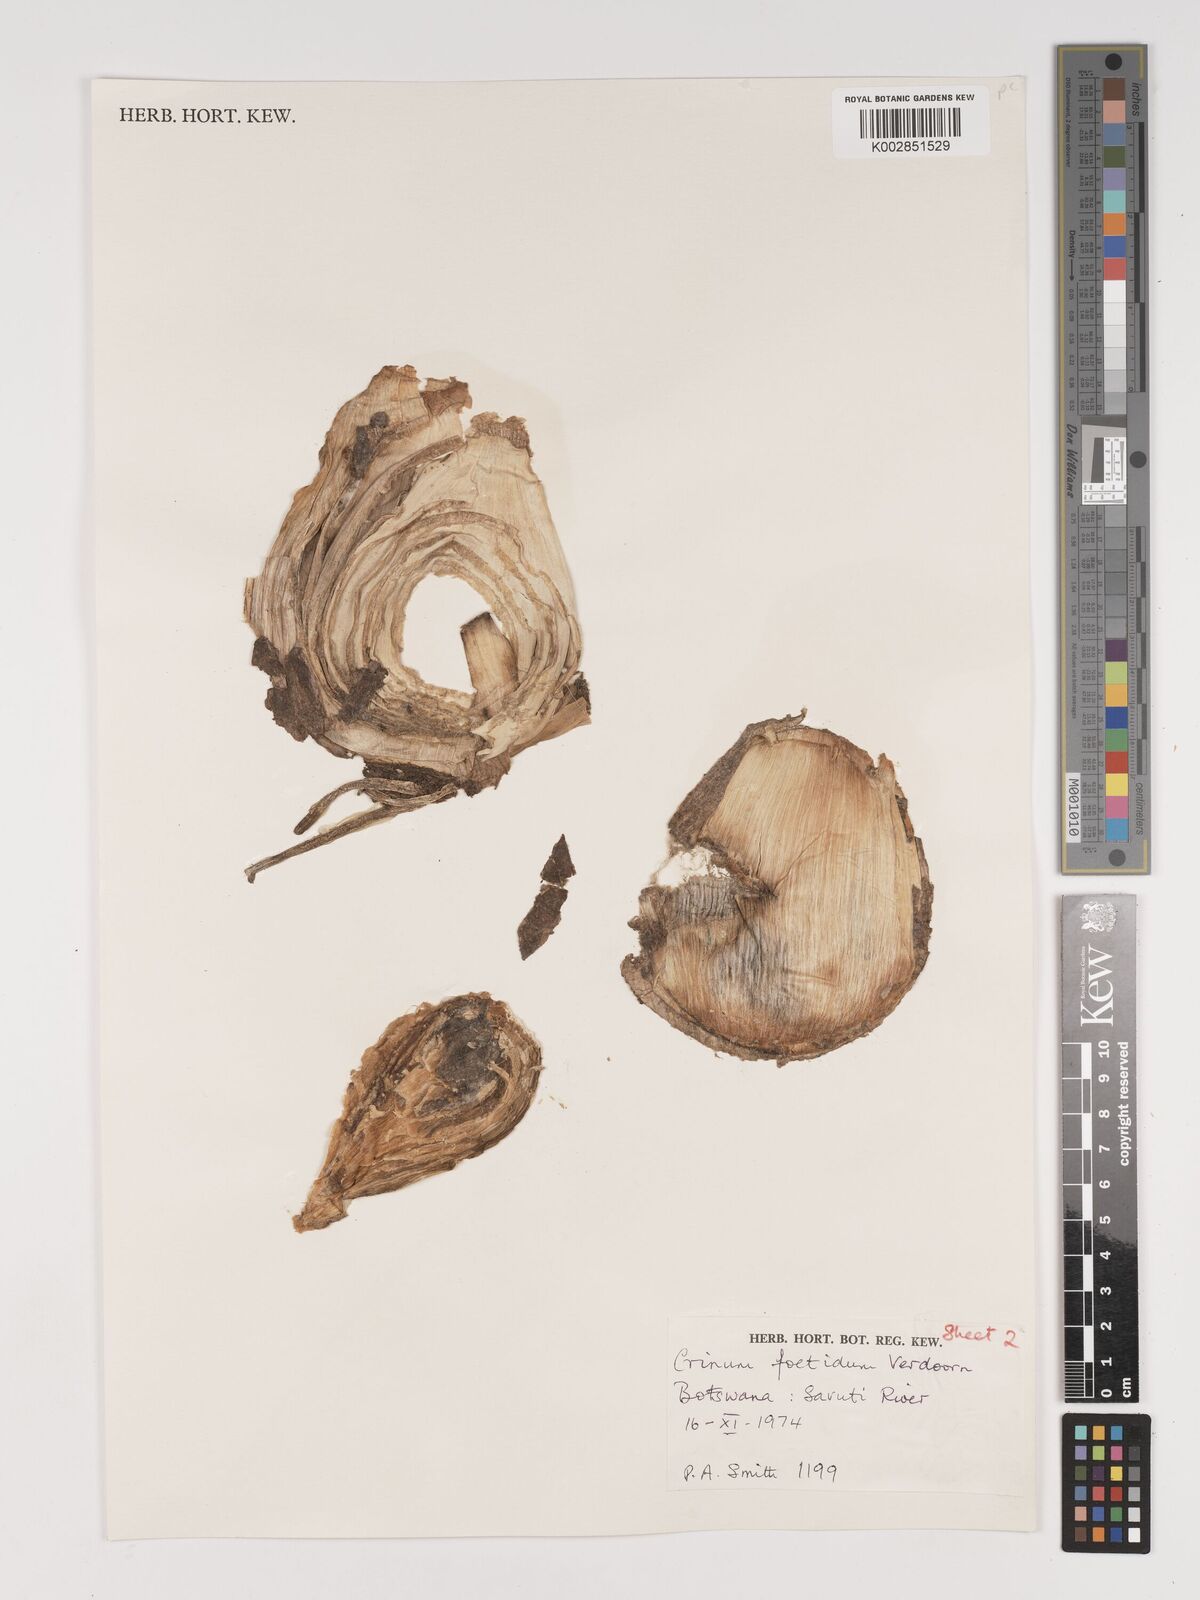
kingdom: Plantae
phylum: Tracheophyta
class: Liliopsida
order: Asparagales
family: Amaryllidaceae
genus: Crinum
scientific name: Crinum crassicaule
